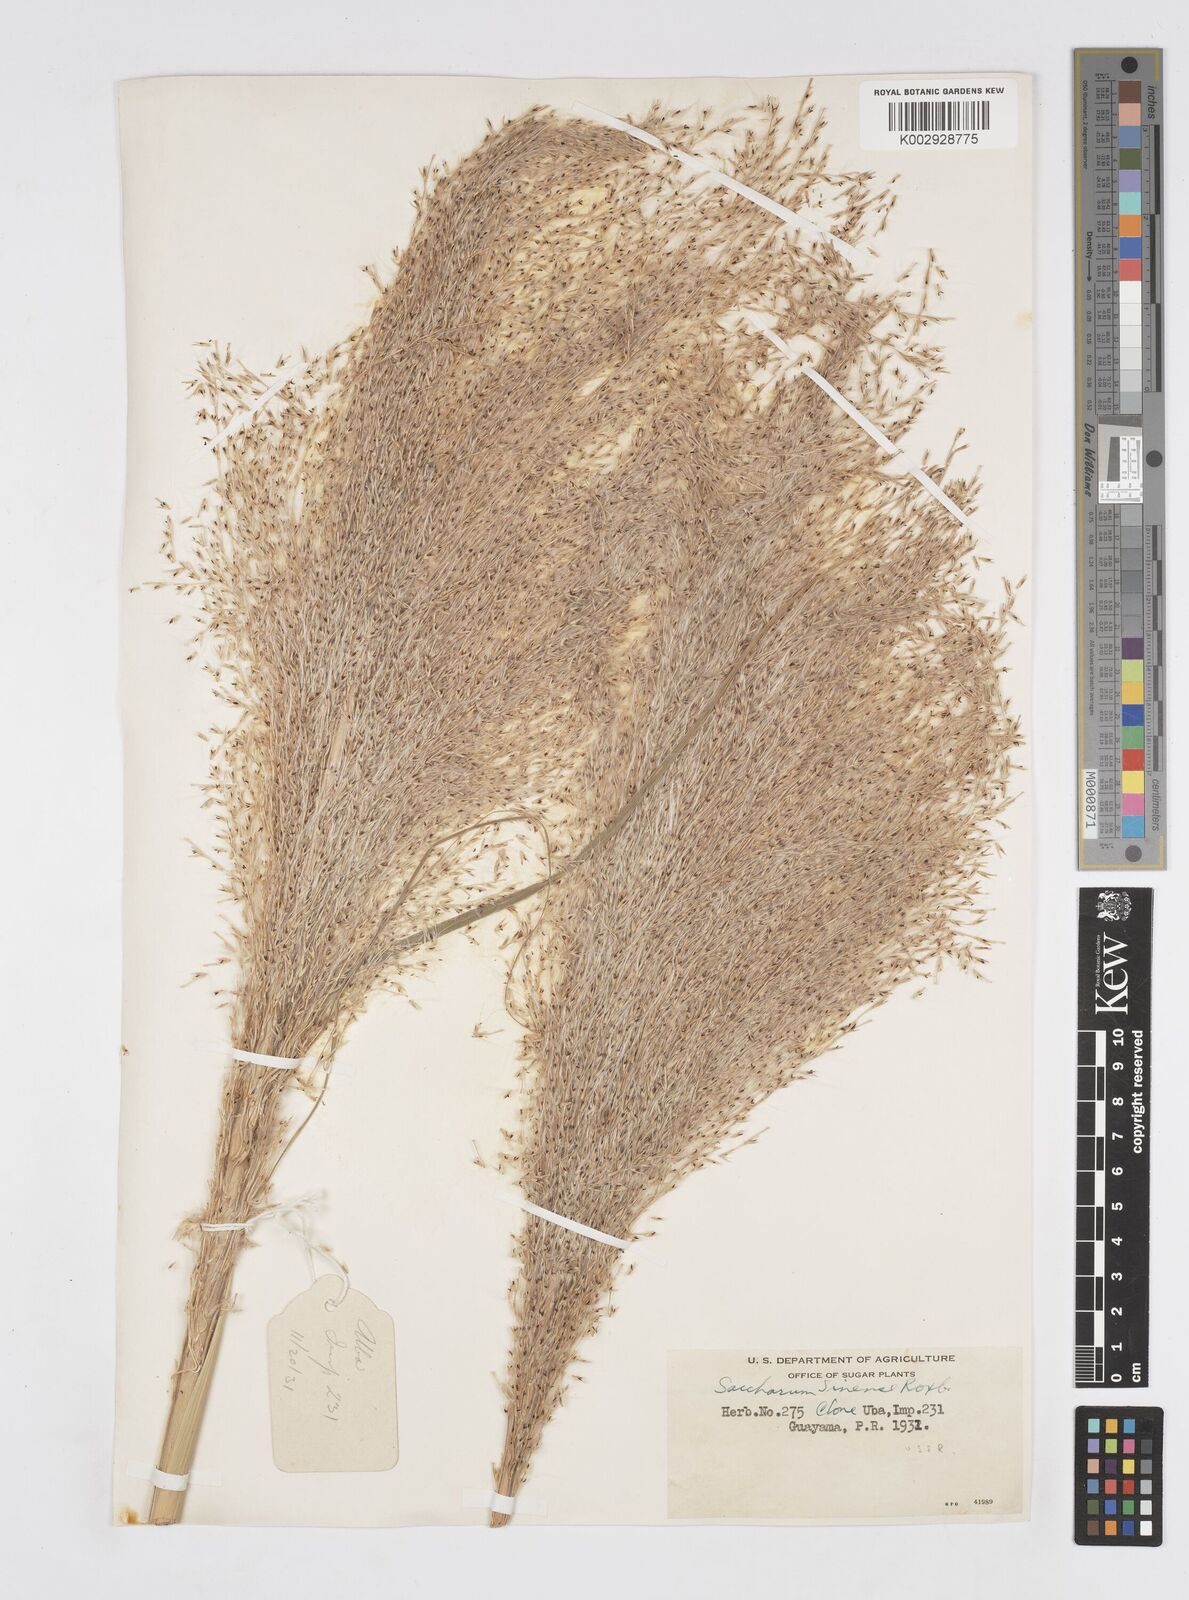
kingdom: Plantae
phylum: Tracheophyta
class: Liliopsida
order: Poales
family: Poaceae
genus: Saccharum
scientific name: Saccharum officinarum
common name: Sugarcane
